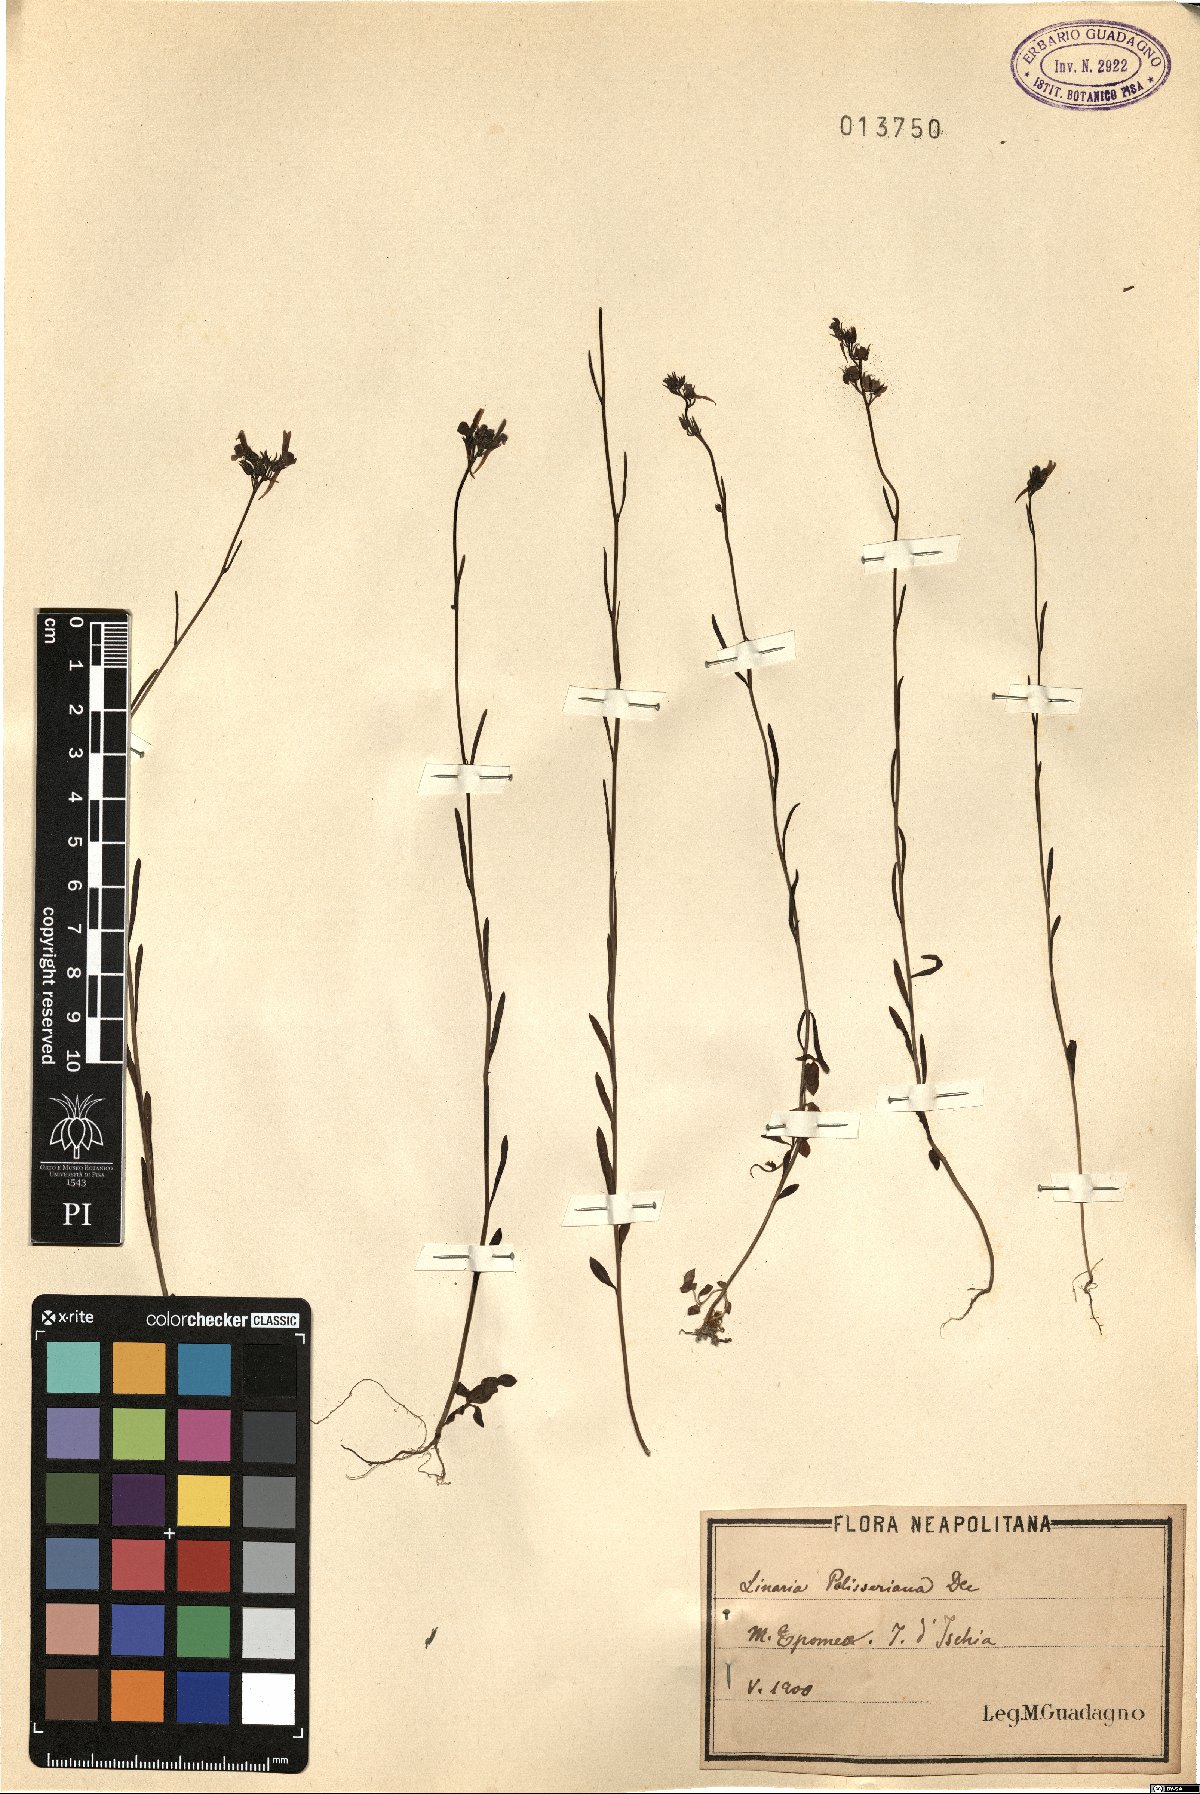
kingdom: Plantae
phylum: Tracheophyta
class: Magnoliopsida
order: Lamiales
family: Plantaginaceae
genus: Linaria
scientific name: Linaria pelisseriana
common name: Jersey toadflax
